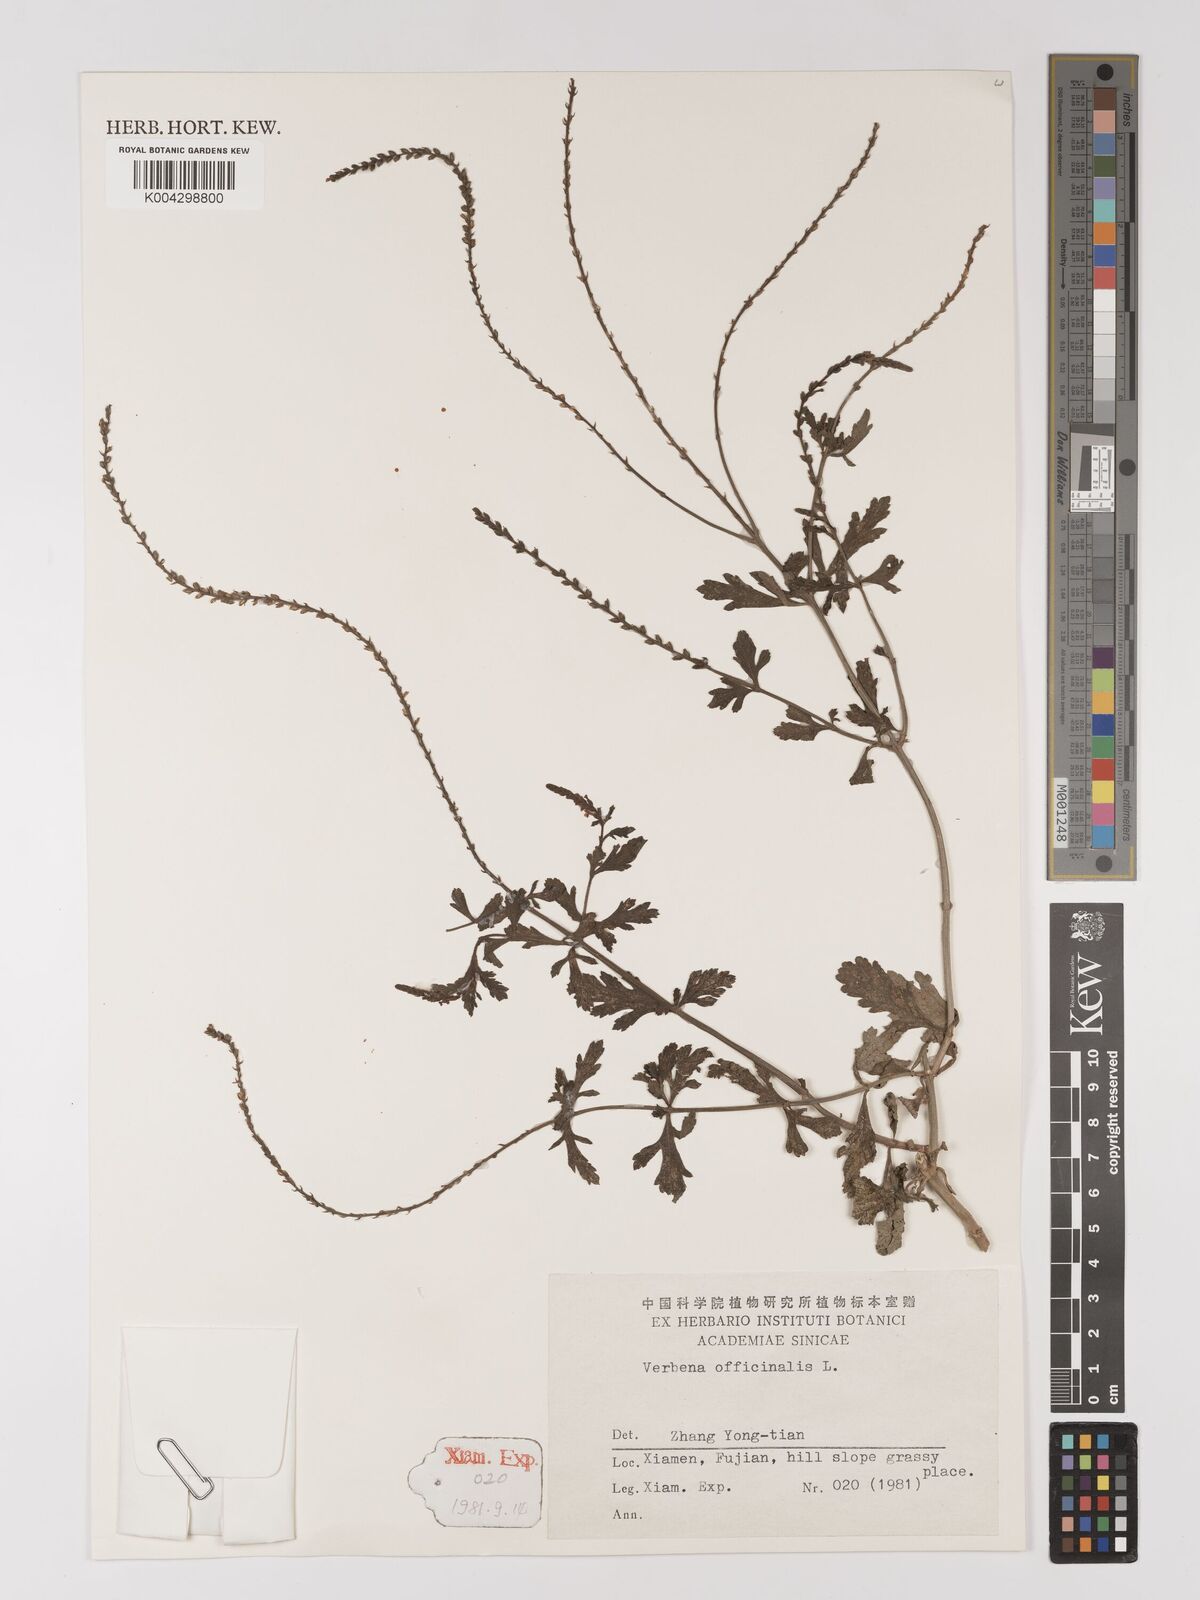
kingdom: Plantae
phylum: Tracheophyta
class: Magnoliopsida
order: Lamiales
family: Verbenaceae
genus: Verbena
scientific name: Verbena officinalis
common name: Vervain
